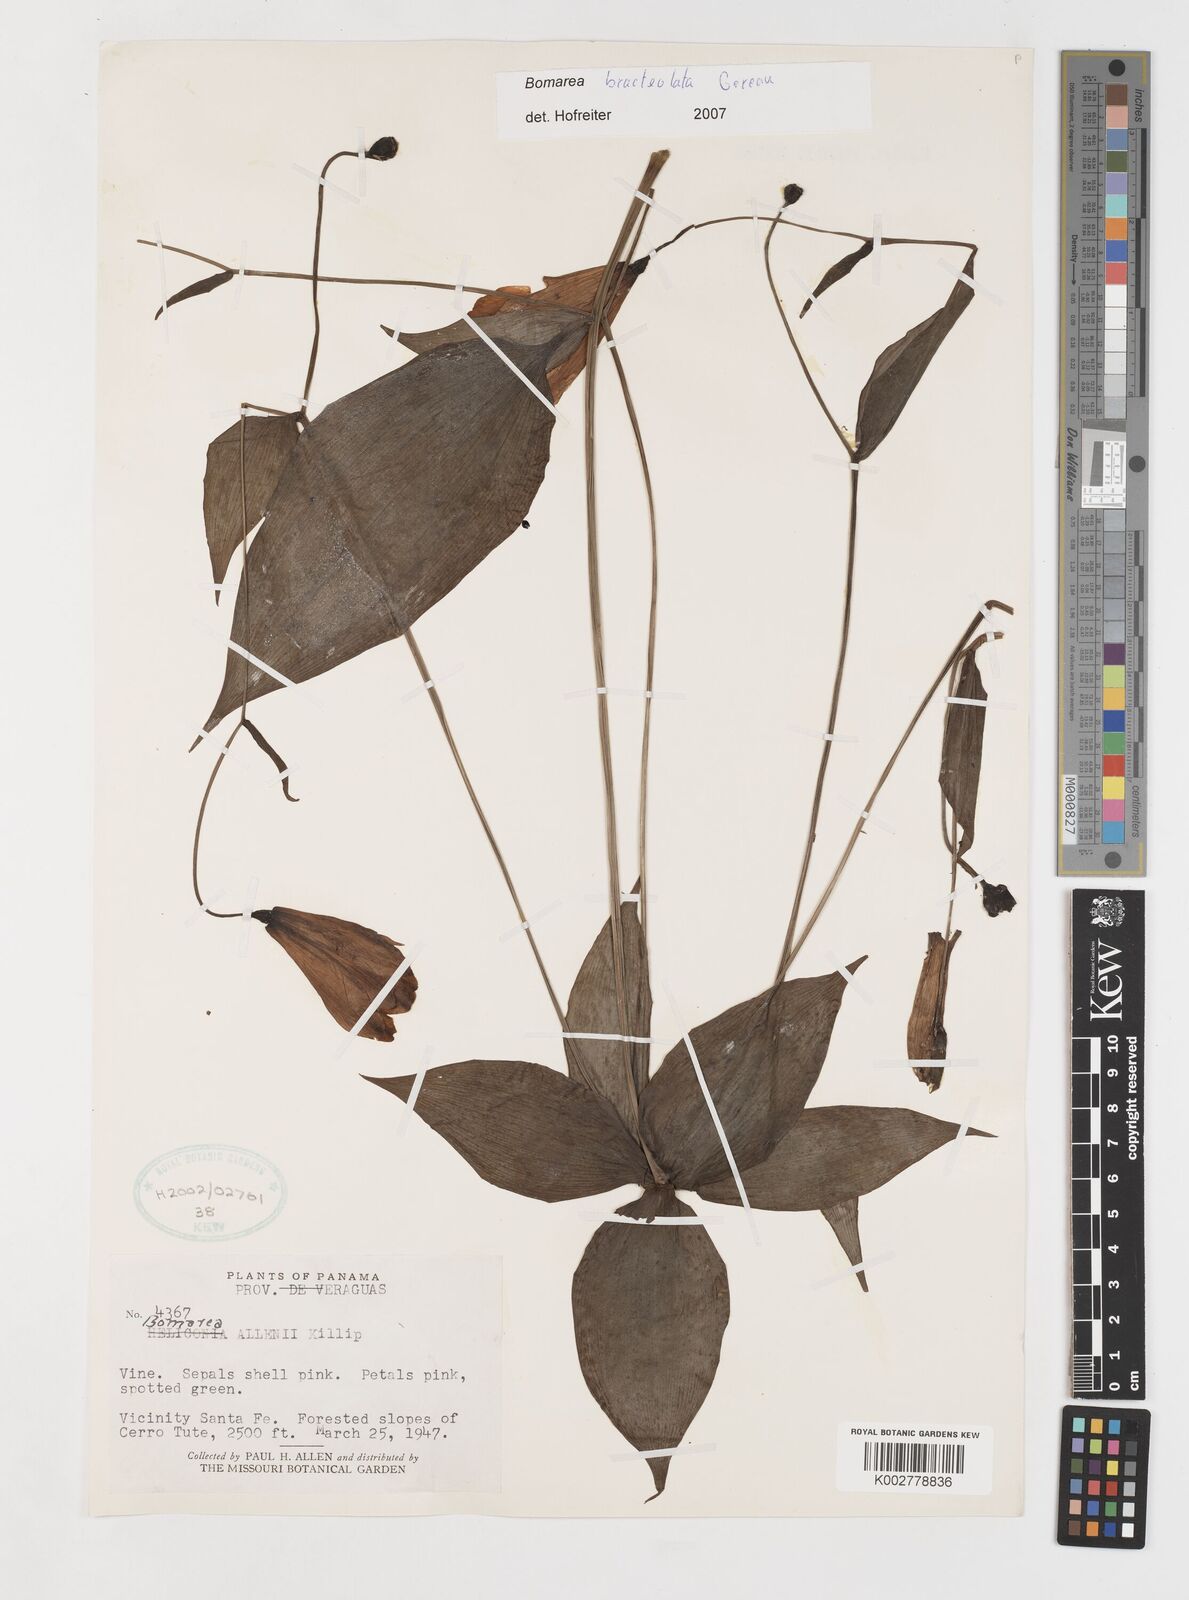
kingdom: Plantae
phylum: Tracheophyta
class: Liliopsida
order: Liliales
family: Alstroemeriaceae
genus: Bomarea
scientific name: Bomarea bracteolata
